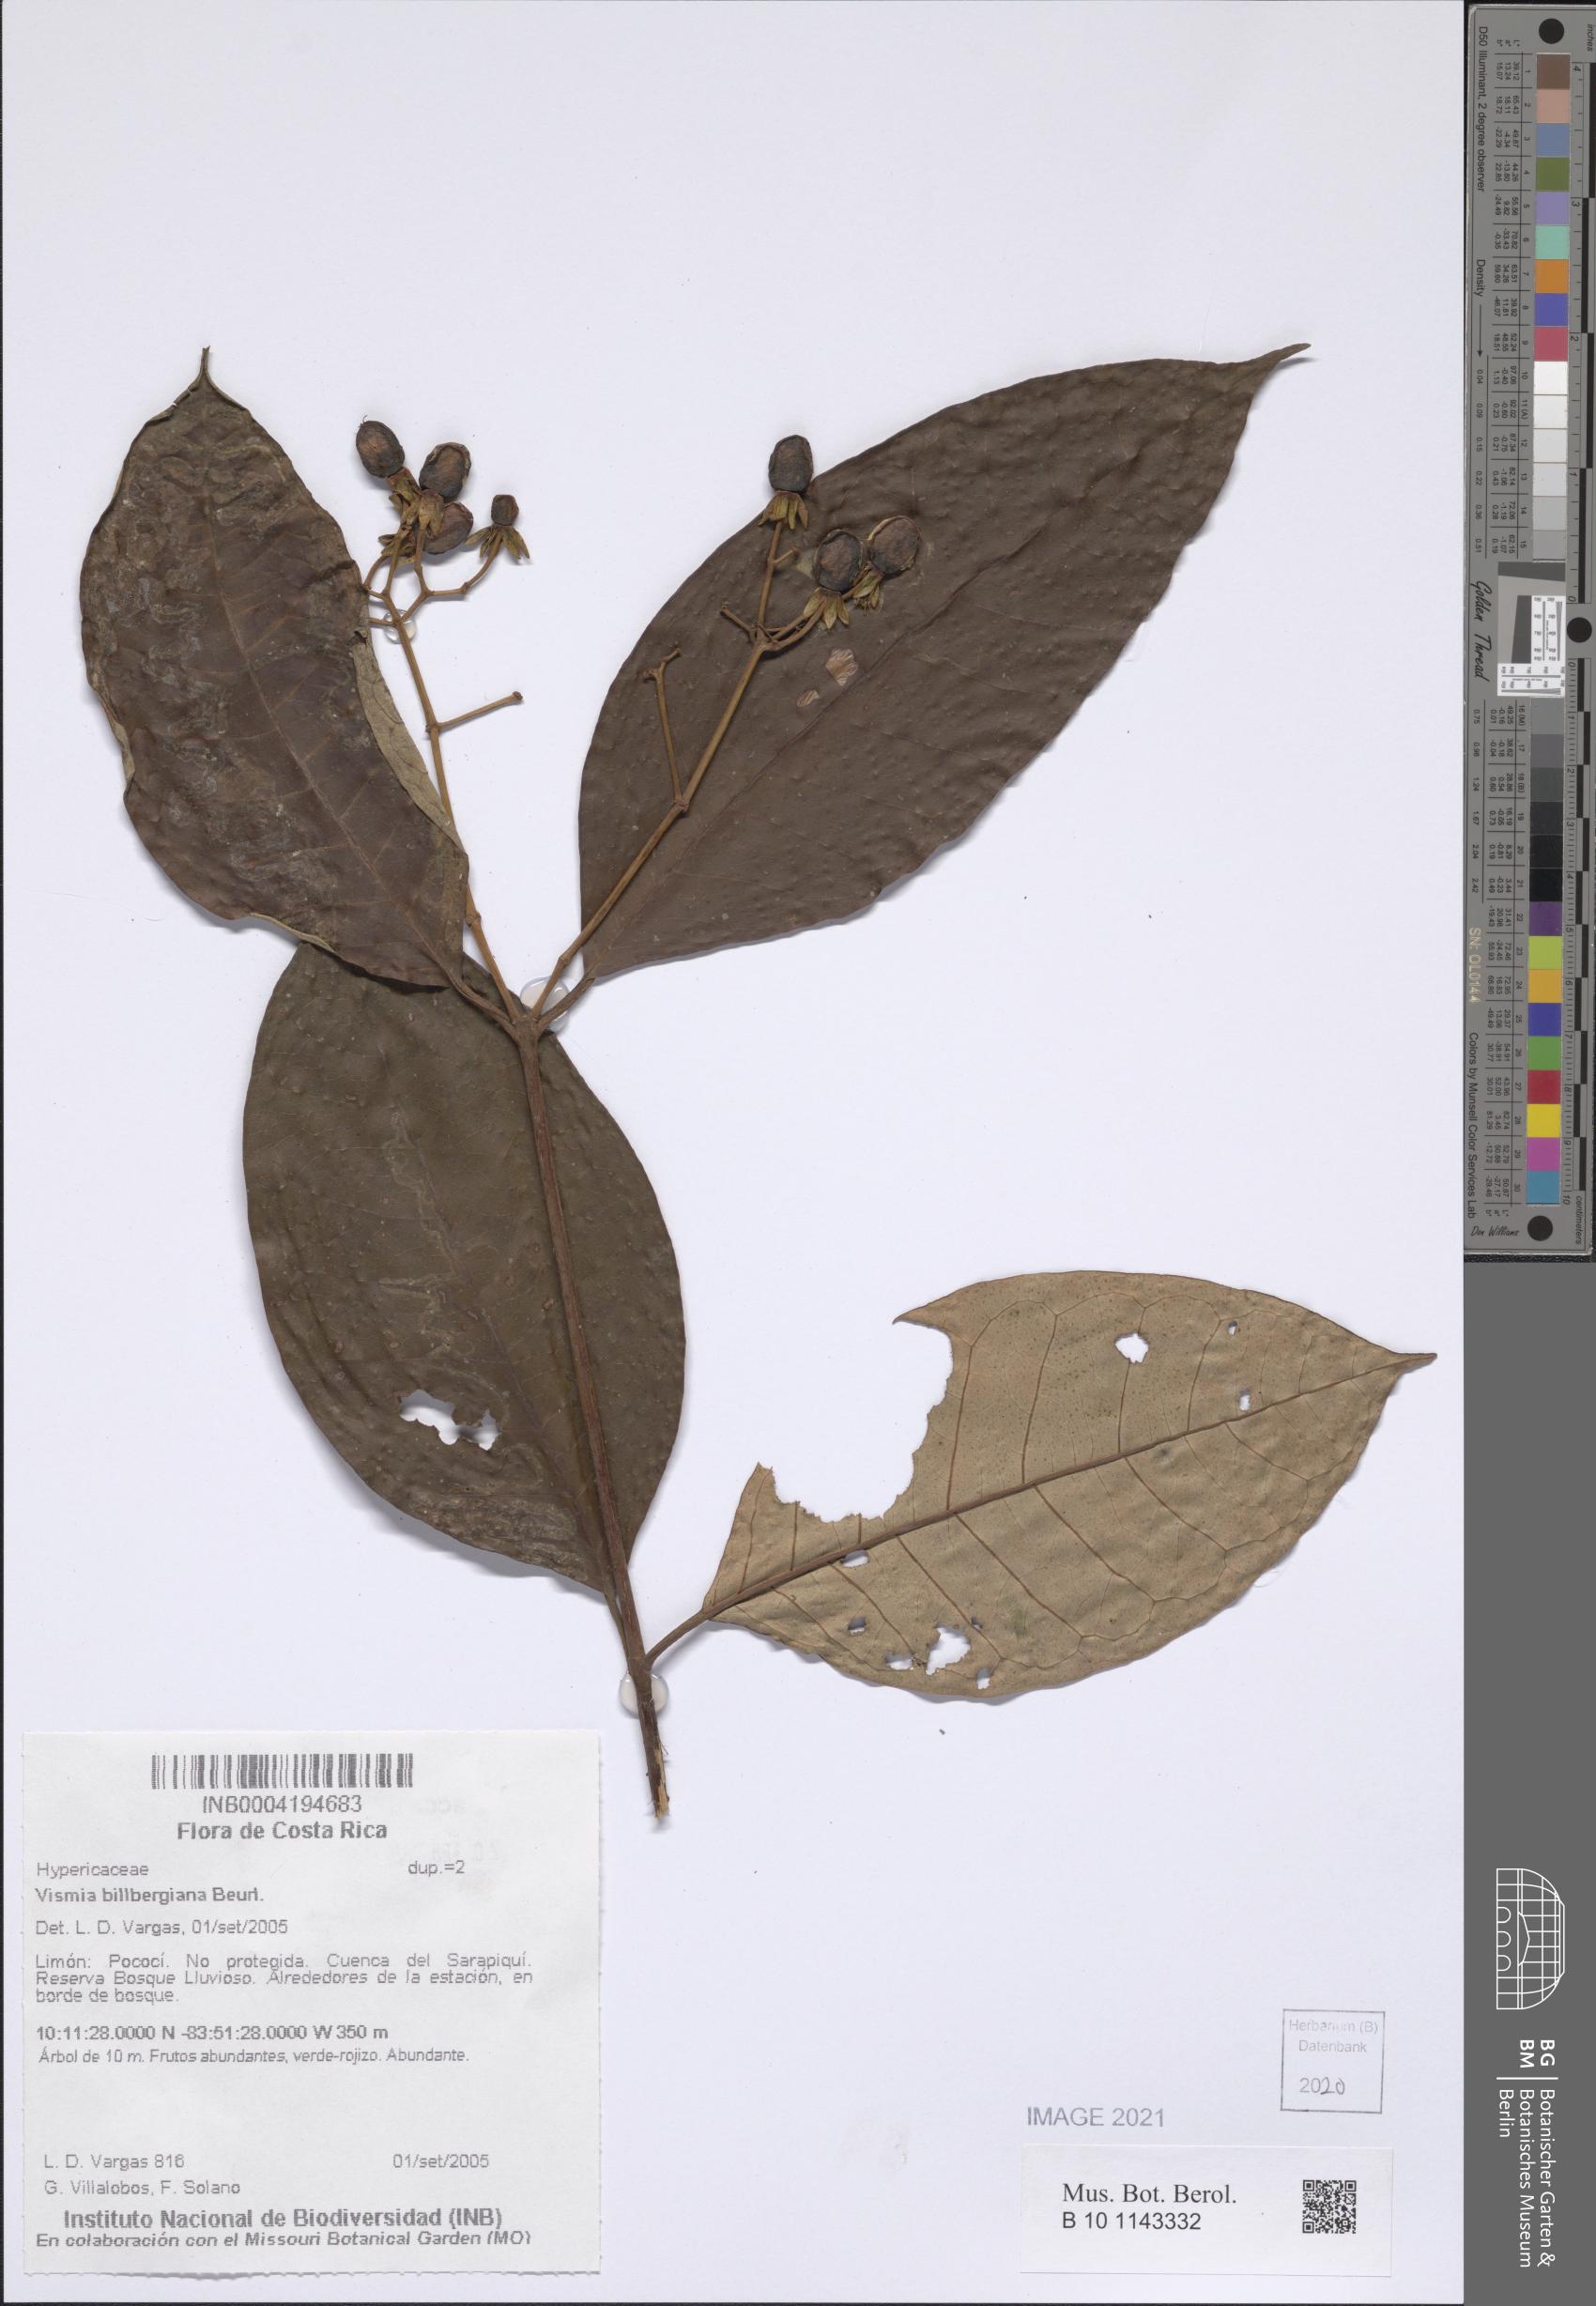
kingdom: Plantae
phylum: Tracheophyta
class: Magnoliopsida
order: Malpighiales
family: Hypericaceae
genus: Vismia
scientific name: Vismia billbergiana
